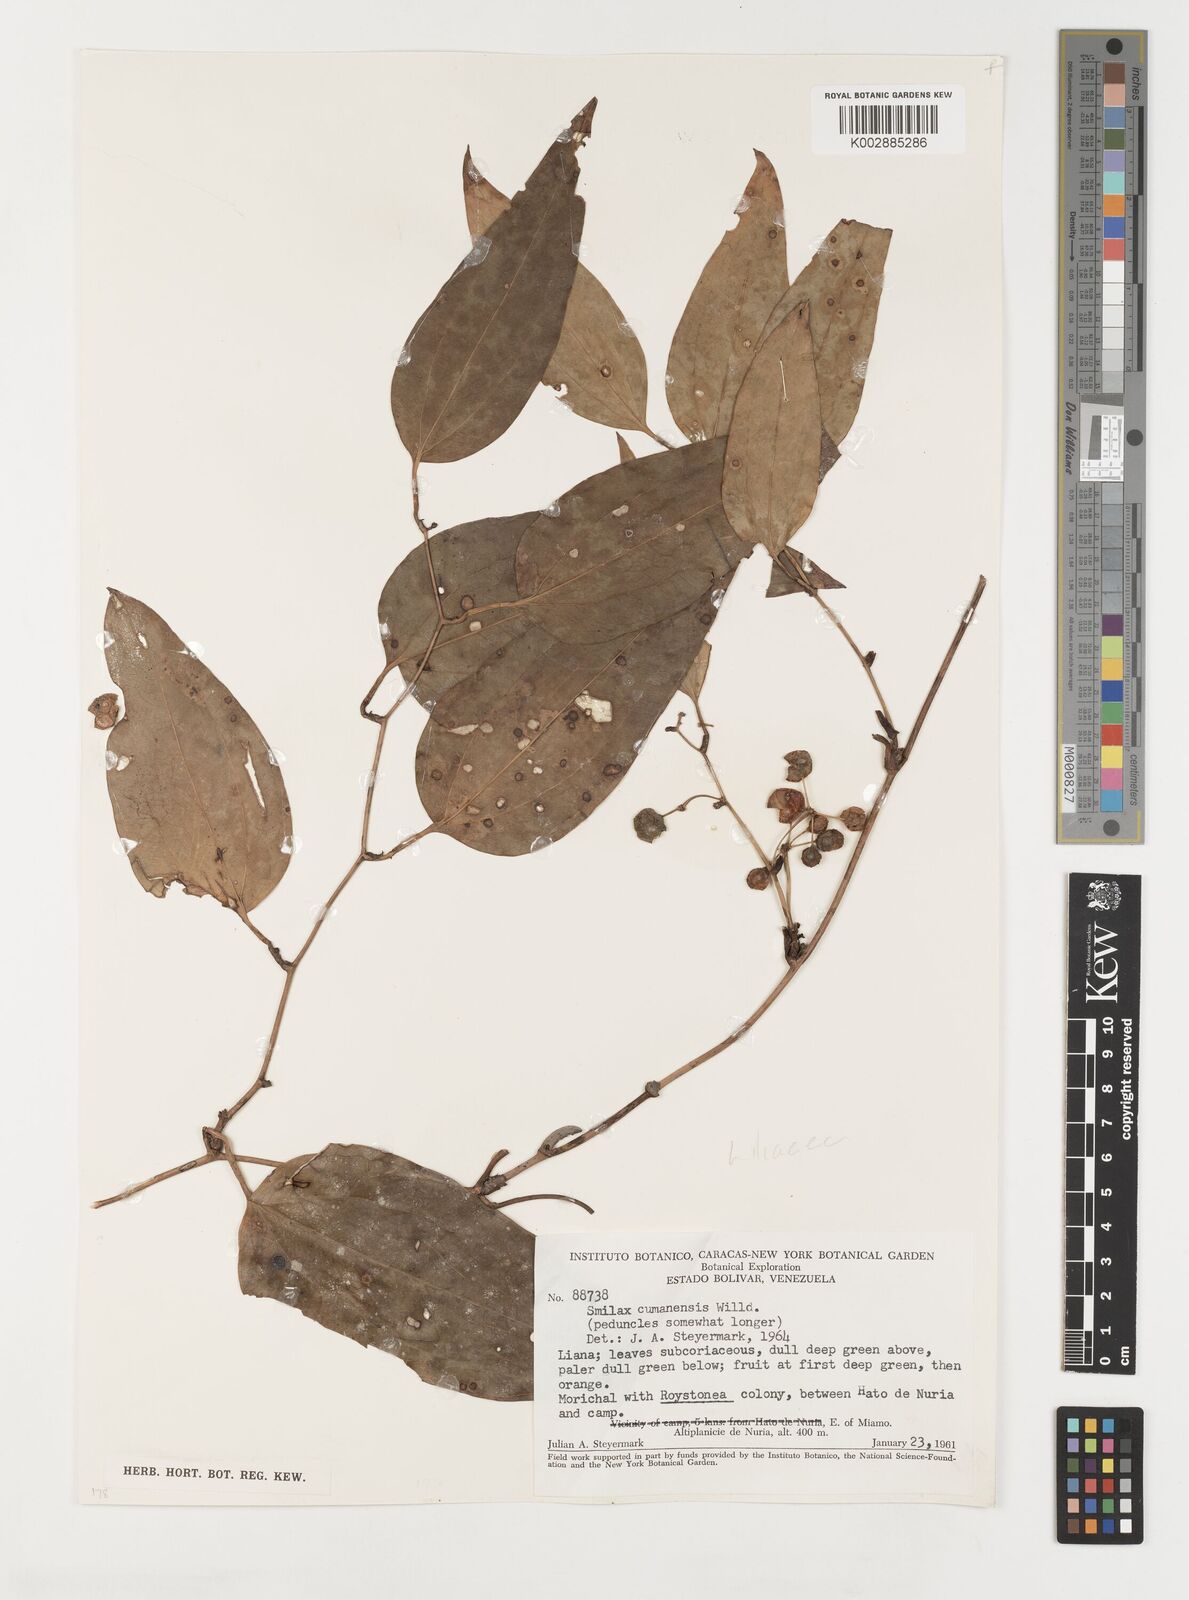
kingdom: Plantae
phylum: Tracheophyta
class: Liliopsida
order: Liliales
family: Smilacaceae
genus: Smilax
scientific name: Smilax oblongata
